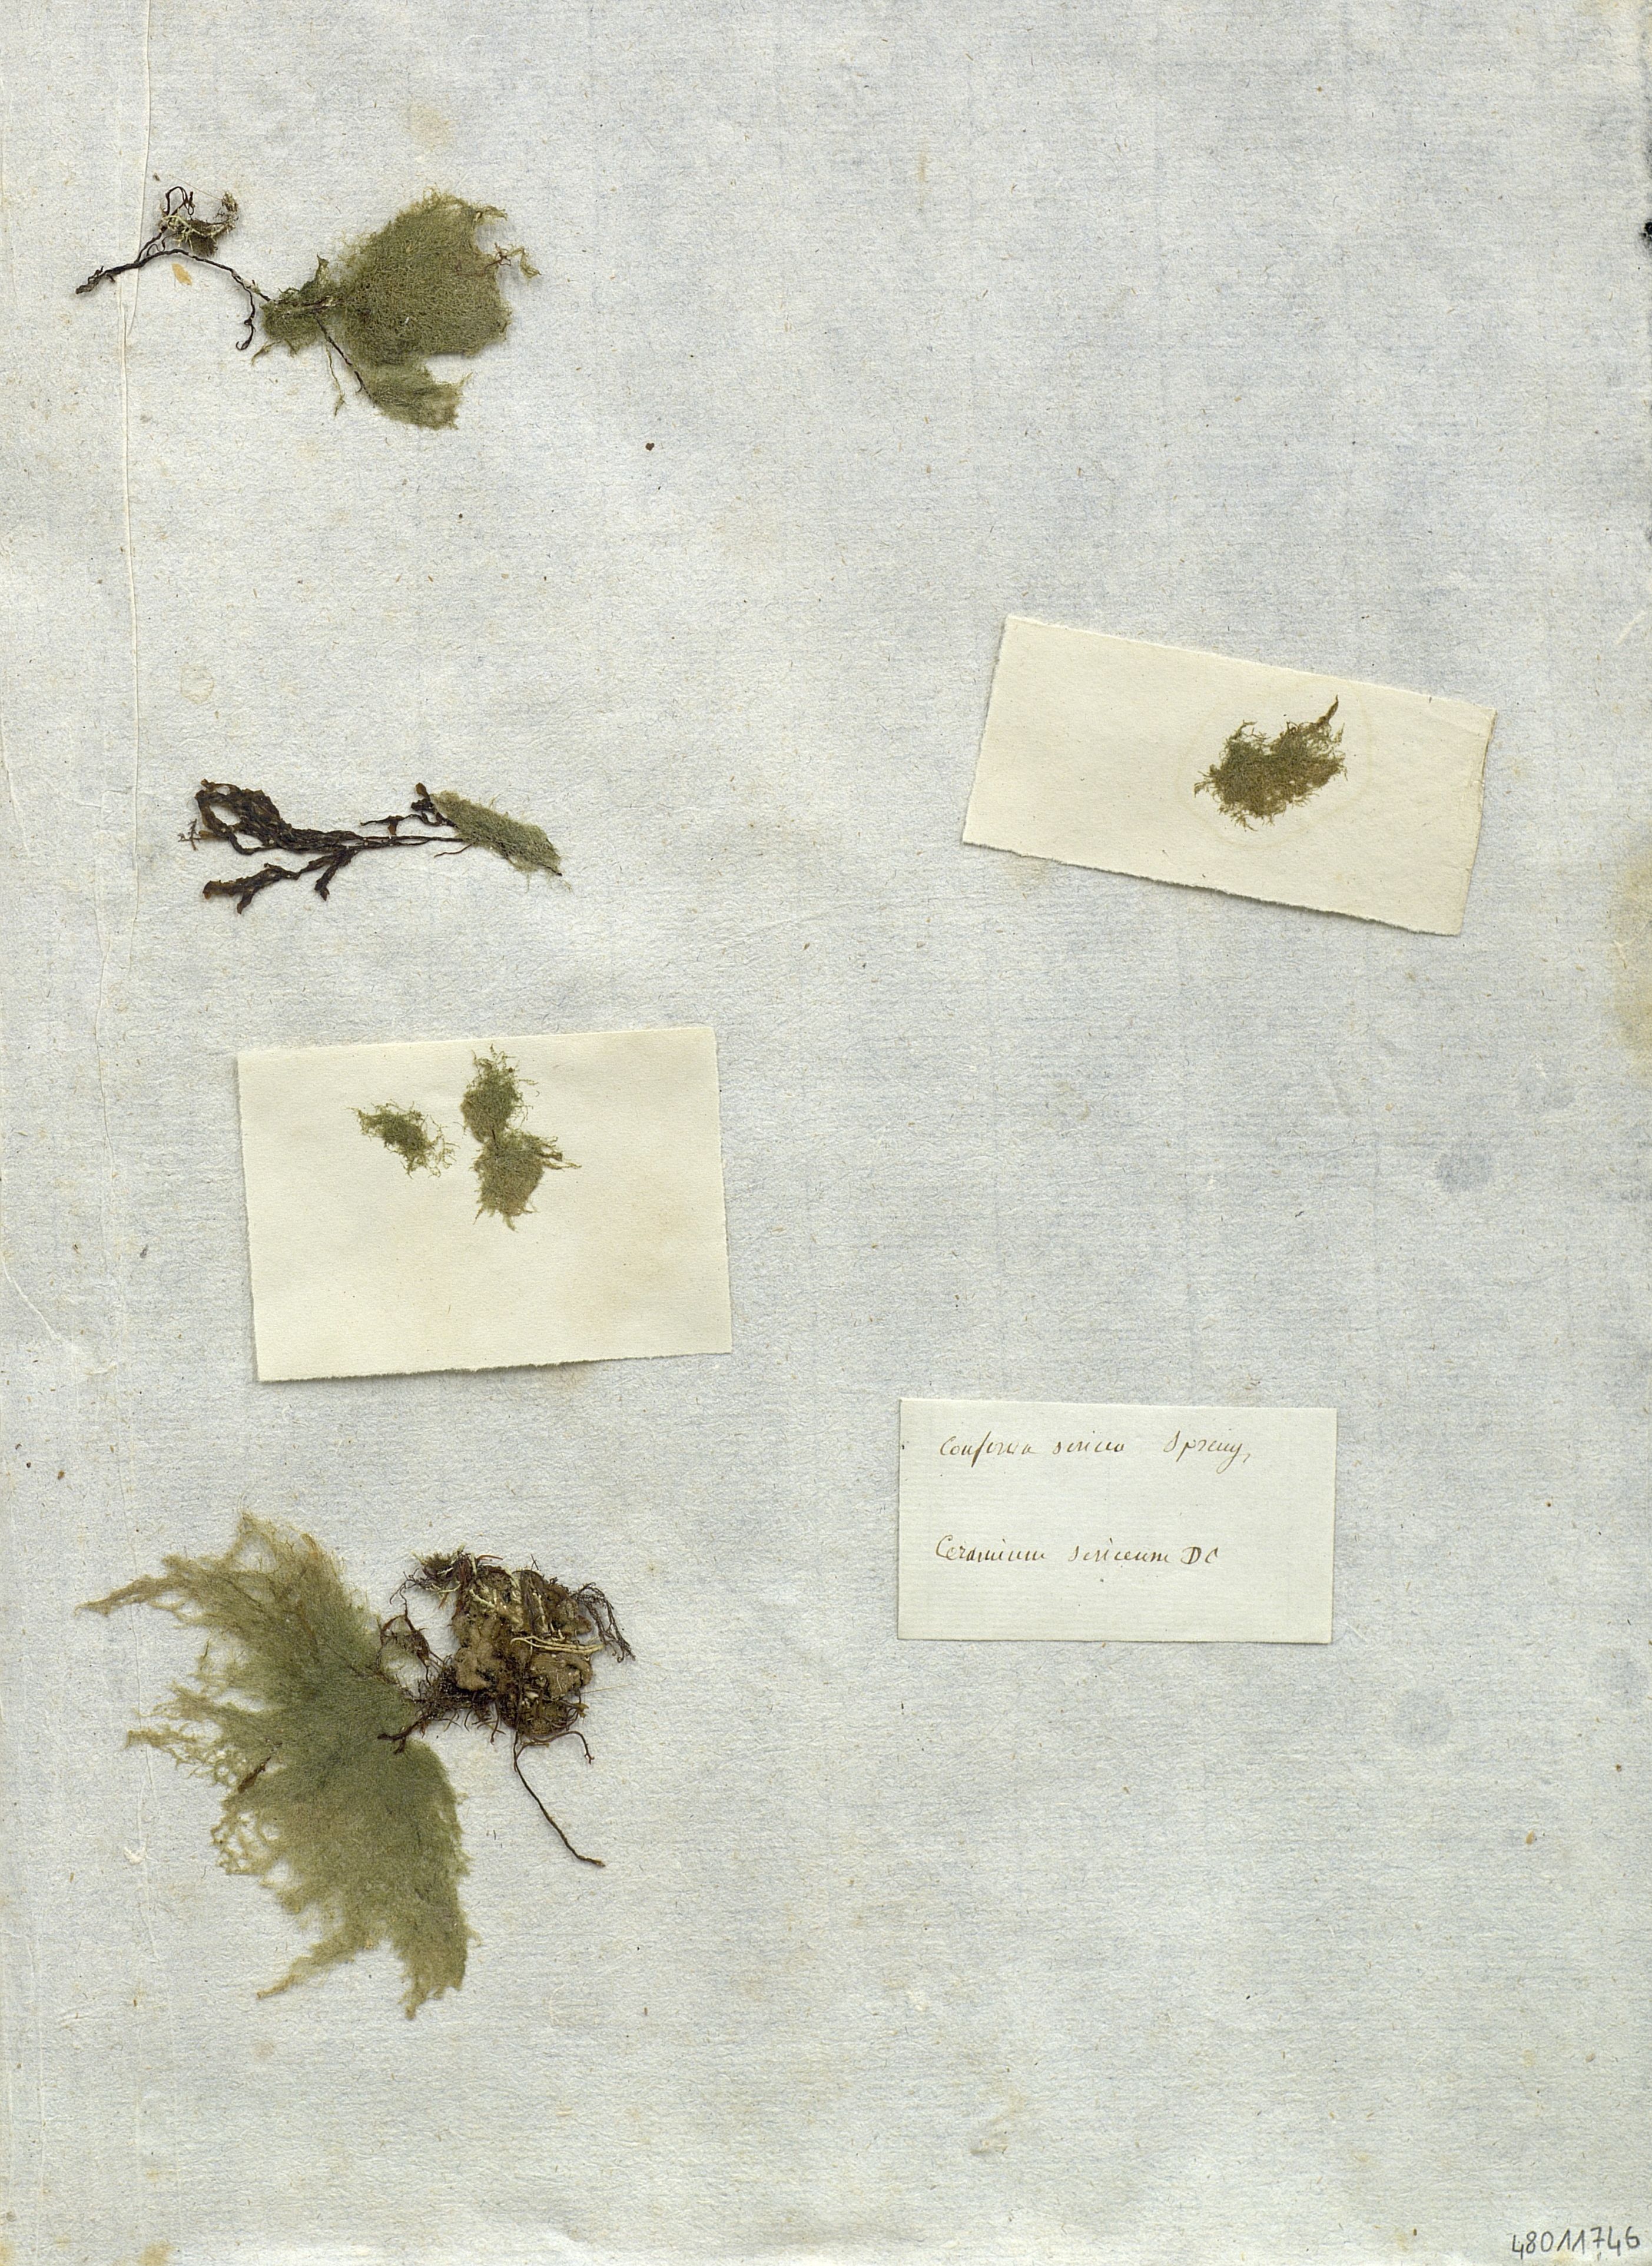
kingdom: Plantae
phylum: Chlorophyta
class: Ulvophyceae
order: Cladophorales
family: Cladophoraceae
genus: Cladophora
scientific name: Cladophora sericea
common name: Graceful green hair
